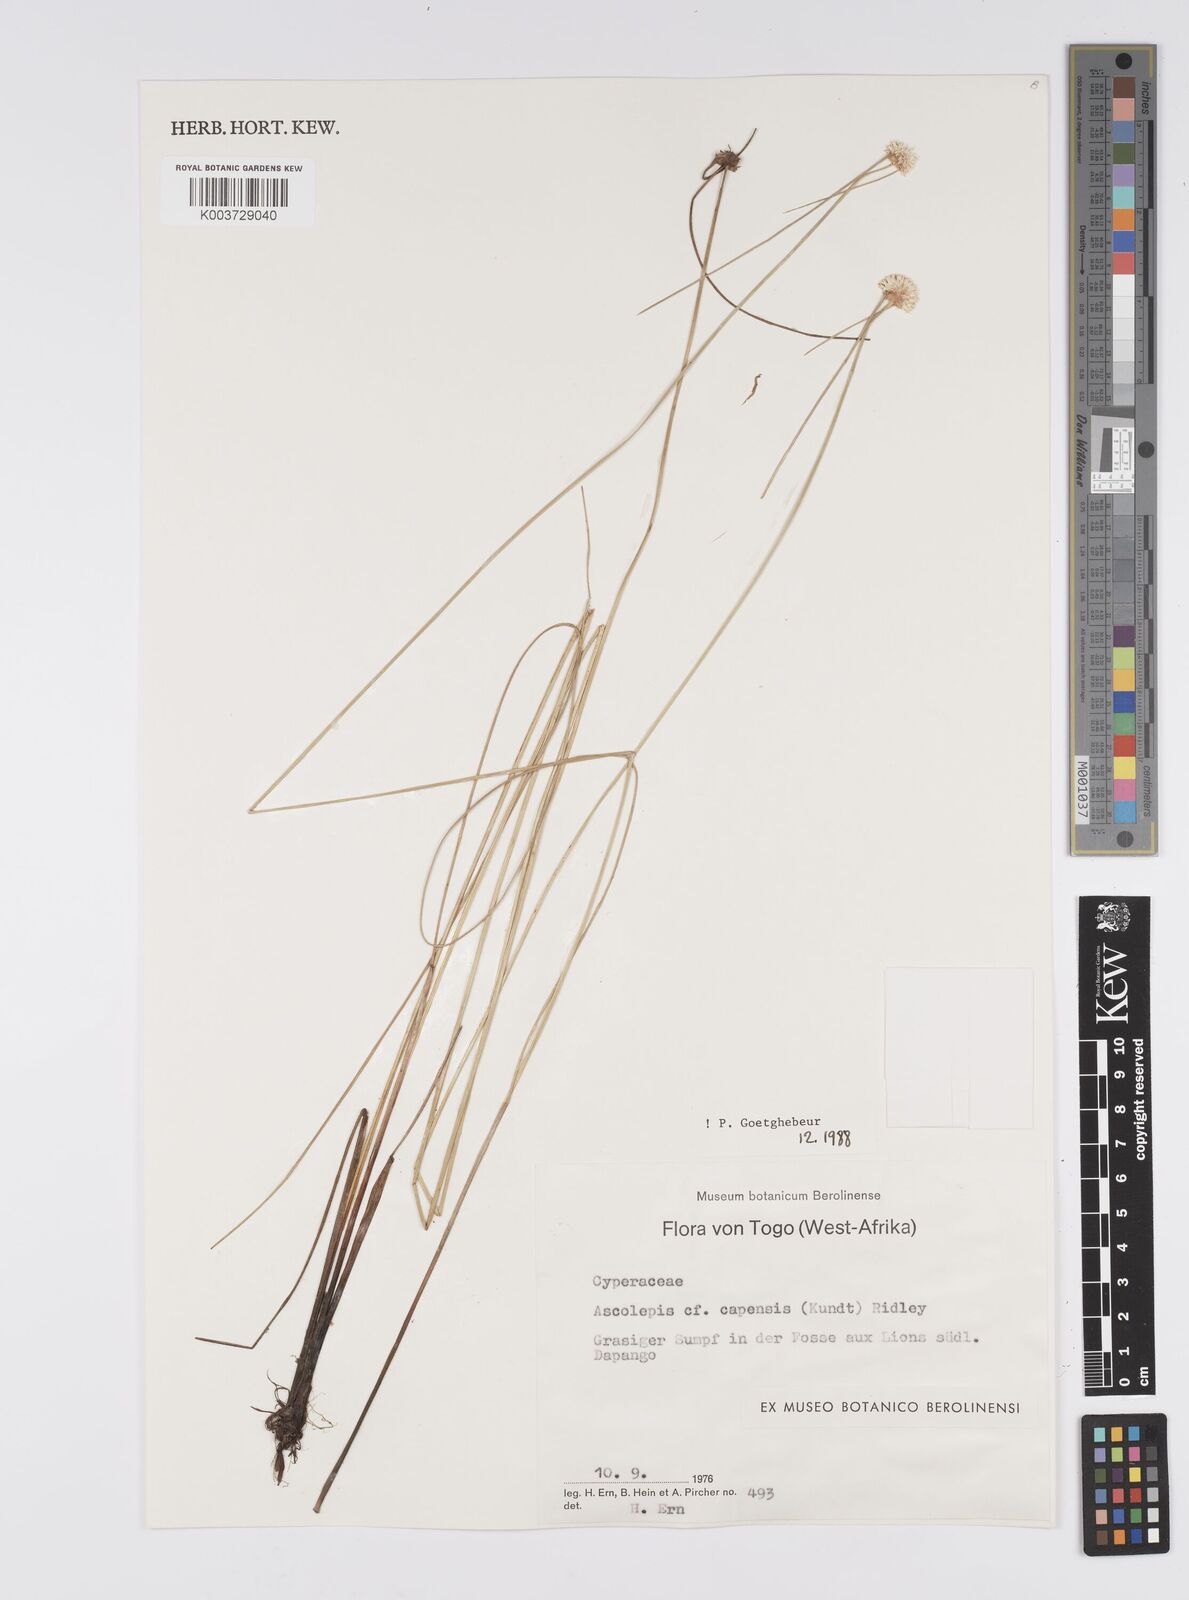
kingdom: Plantae
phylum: Tracheophyta
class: Liliopsida
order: Poales
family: Cyperaceae
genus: Cyperus
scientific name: Cyperus
